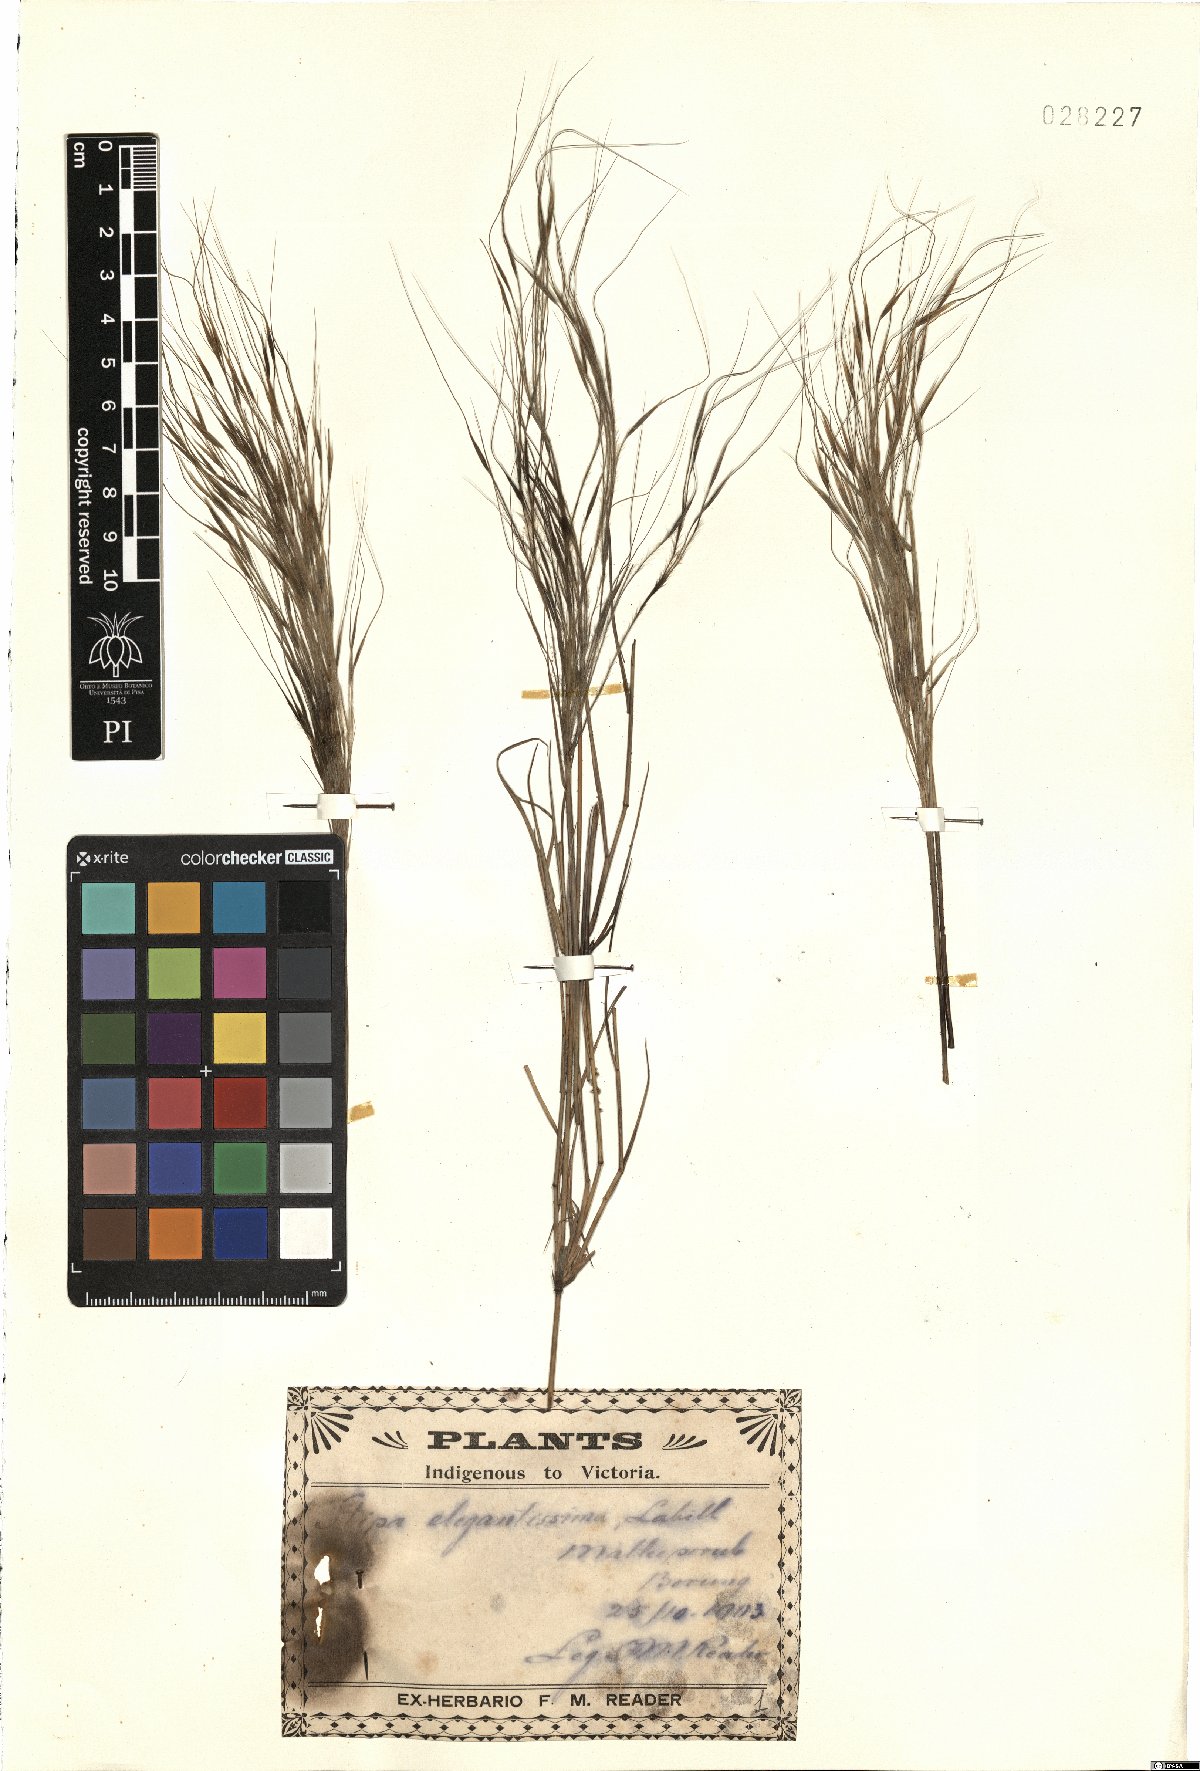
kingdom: Plantae
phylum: Tracheophyta
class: Liliopsida
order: Poales
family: Poaceae
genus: Austrostipa
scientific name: Austrostipa elegantissima
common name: Feather spear grass
